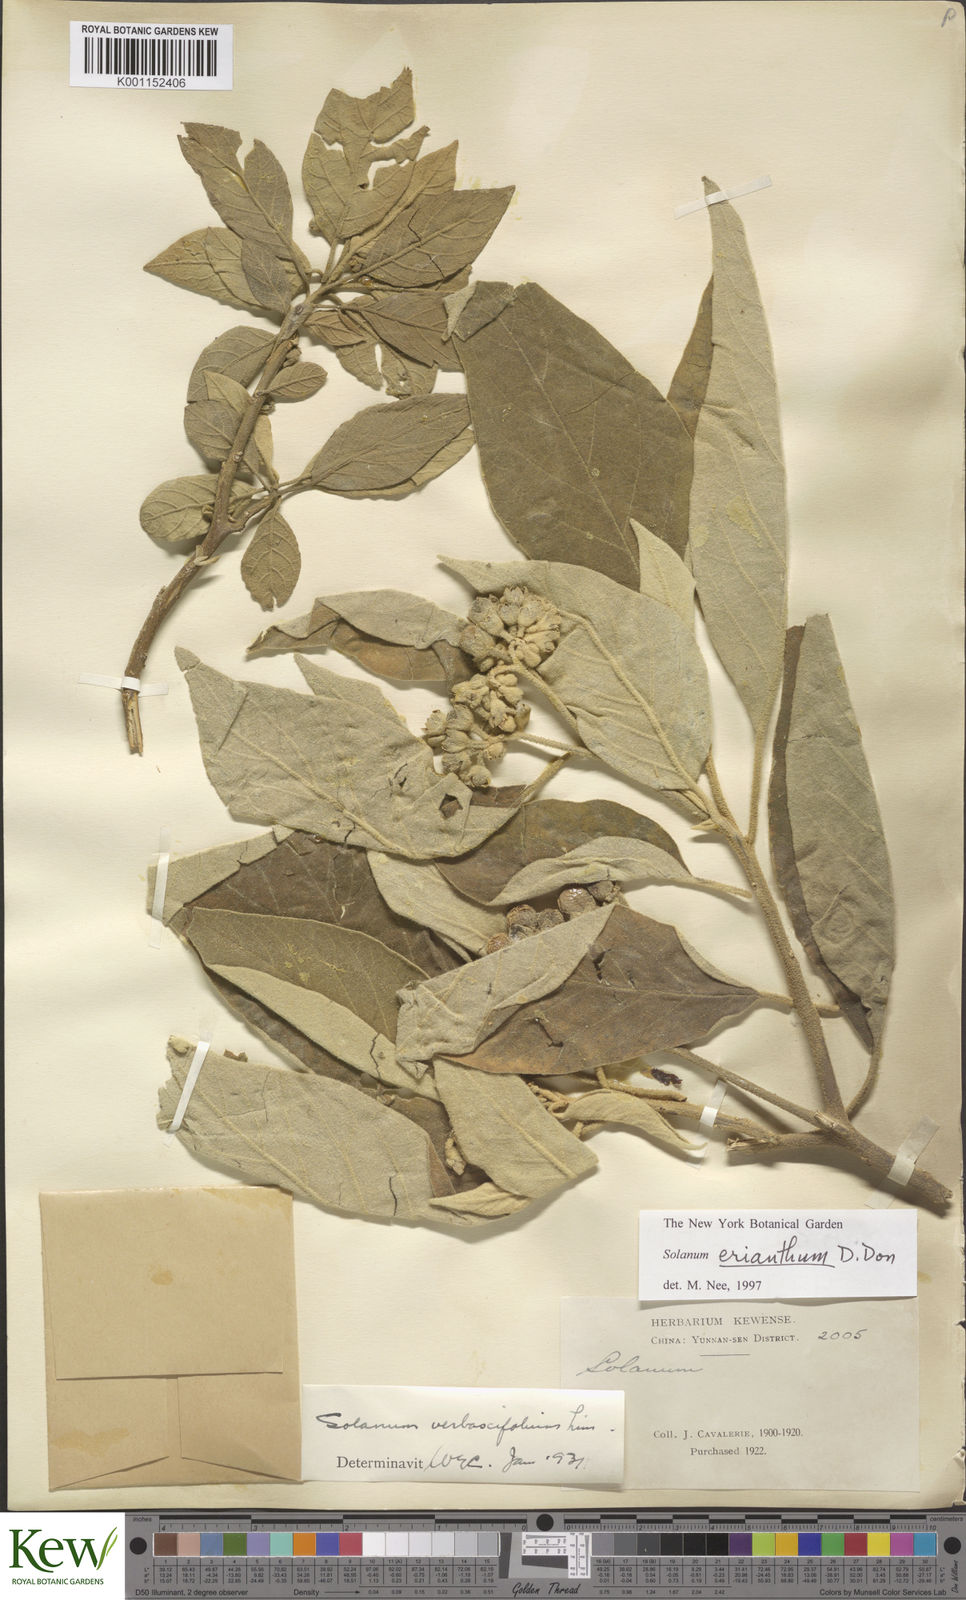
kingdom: Plantae
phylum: Tracheophyta
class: Magnoliopsida
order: Solanales
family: Solanaceae
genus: Solanum
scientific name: Solanum donianum
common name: Mullein nightshade
